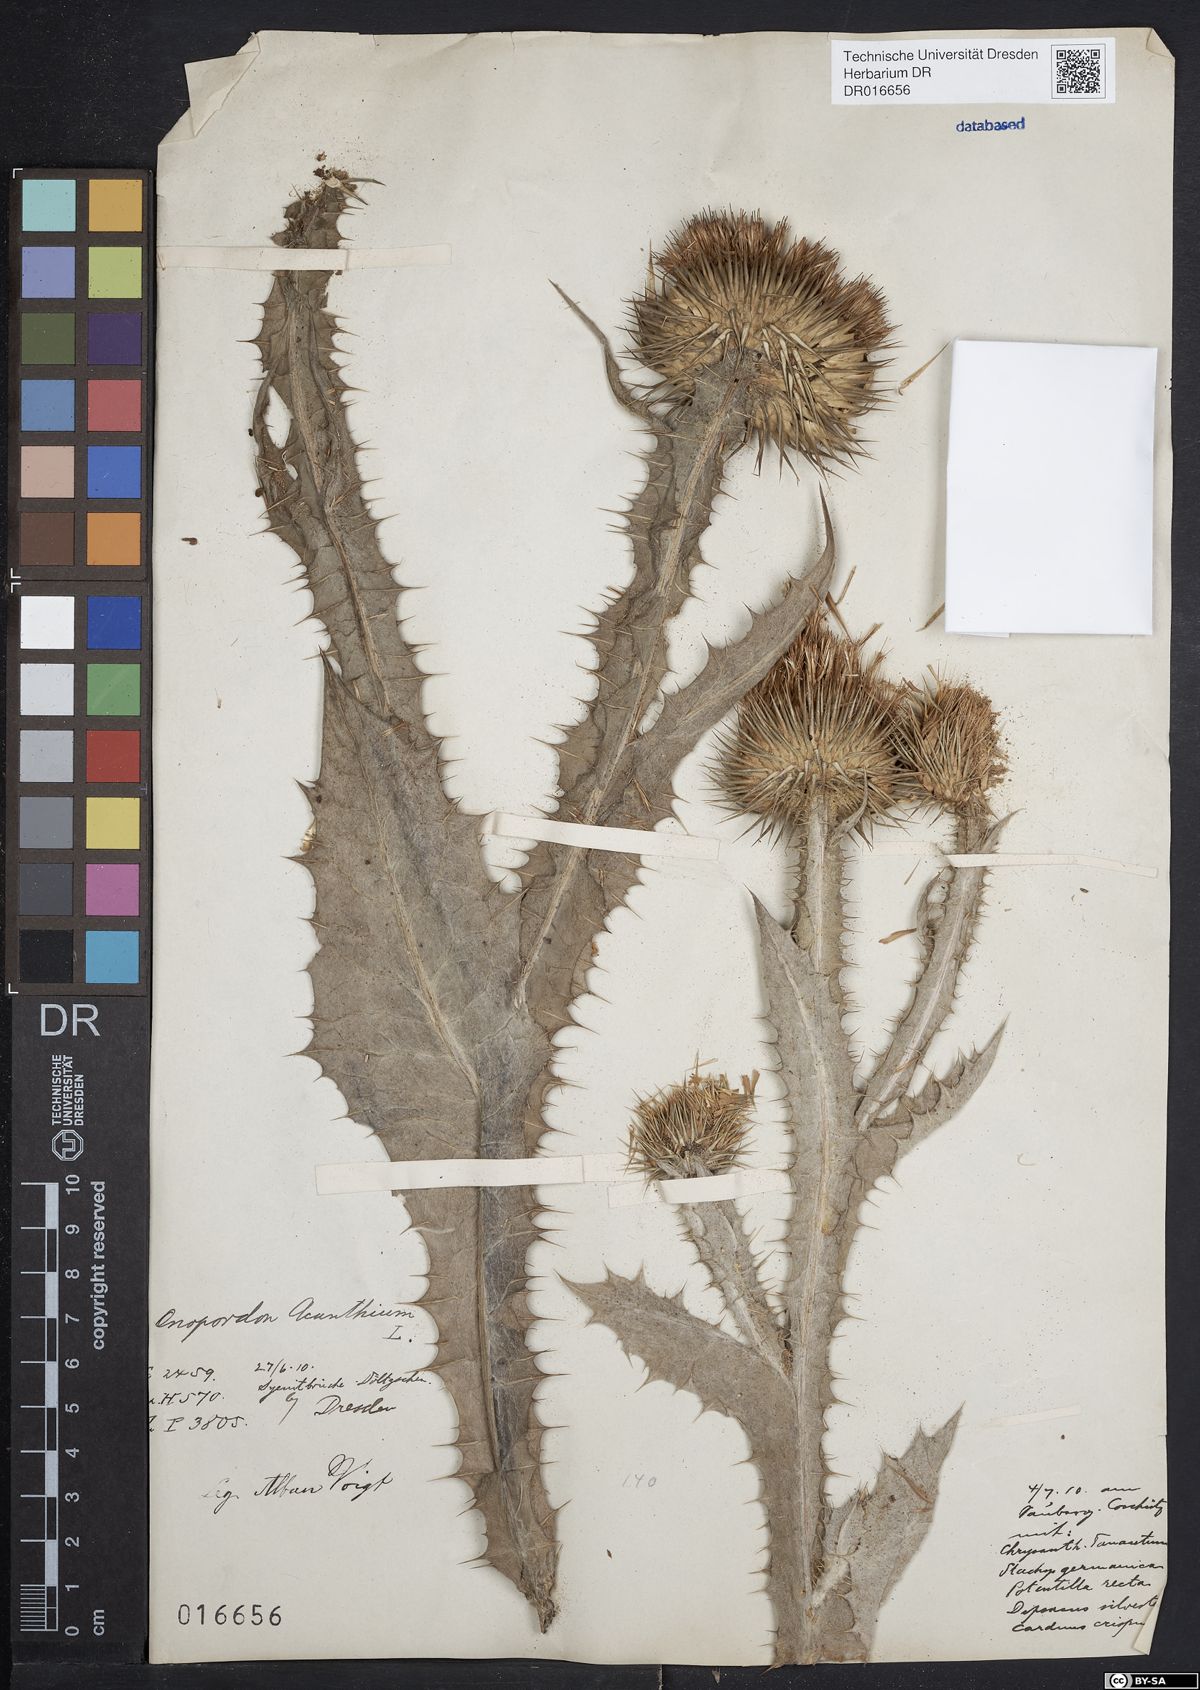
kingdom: Plantae
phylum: Tracheophyta
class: Magnoliopsida
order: Asterales
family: Asteraceae
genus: Onopordum
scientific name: Onopordum acanthium
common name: Scotch thistle
